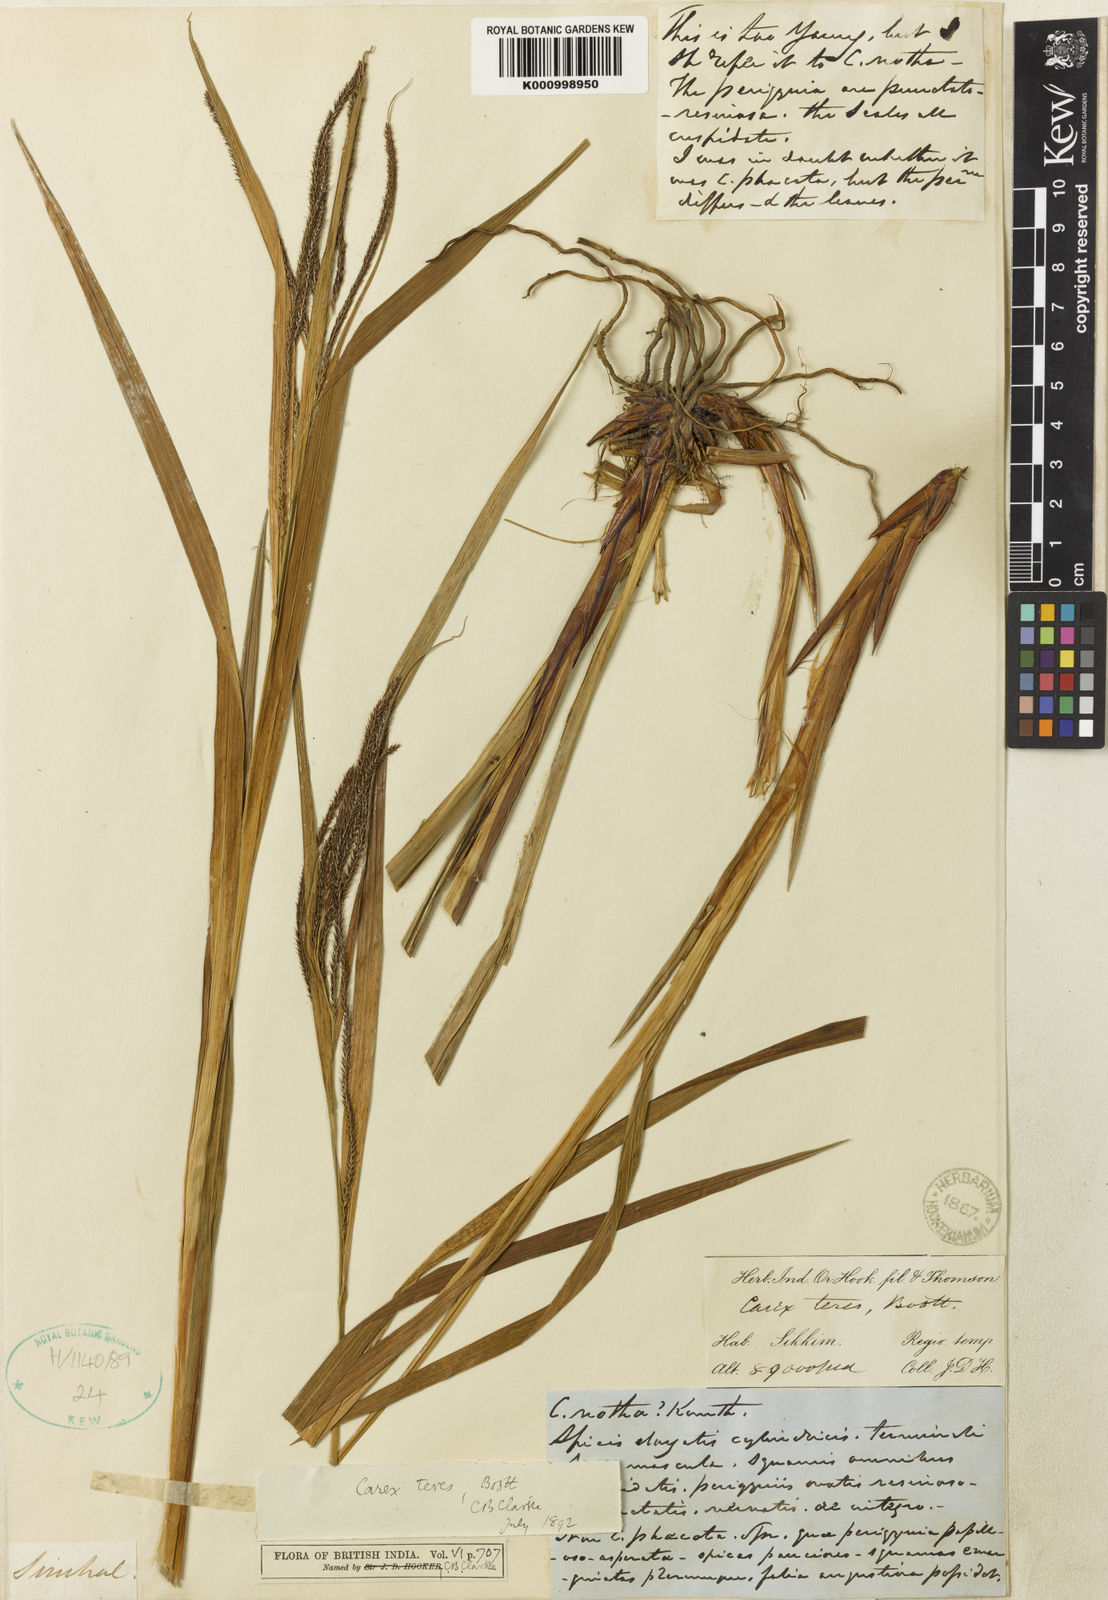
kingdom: Plantae
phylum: Tracheophyta
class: Liliopsida
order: Poales
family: Cyperaceae
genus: Carex
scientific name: Carex teres
